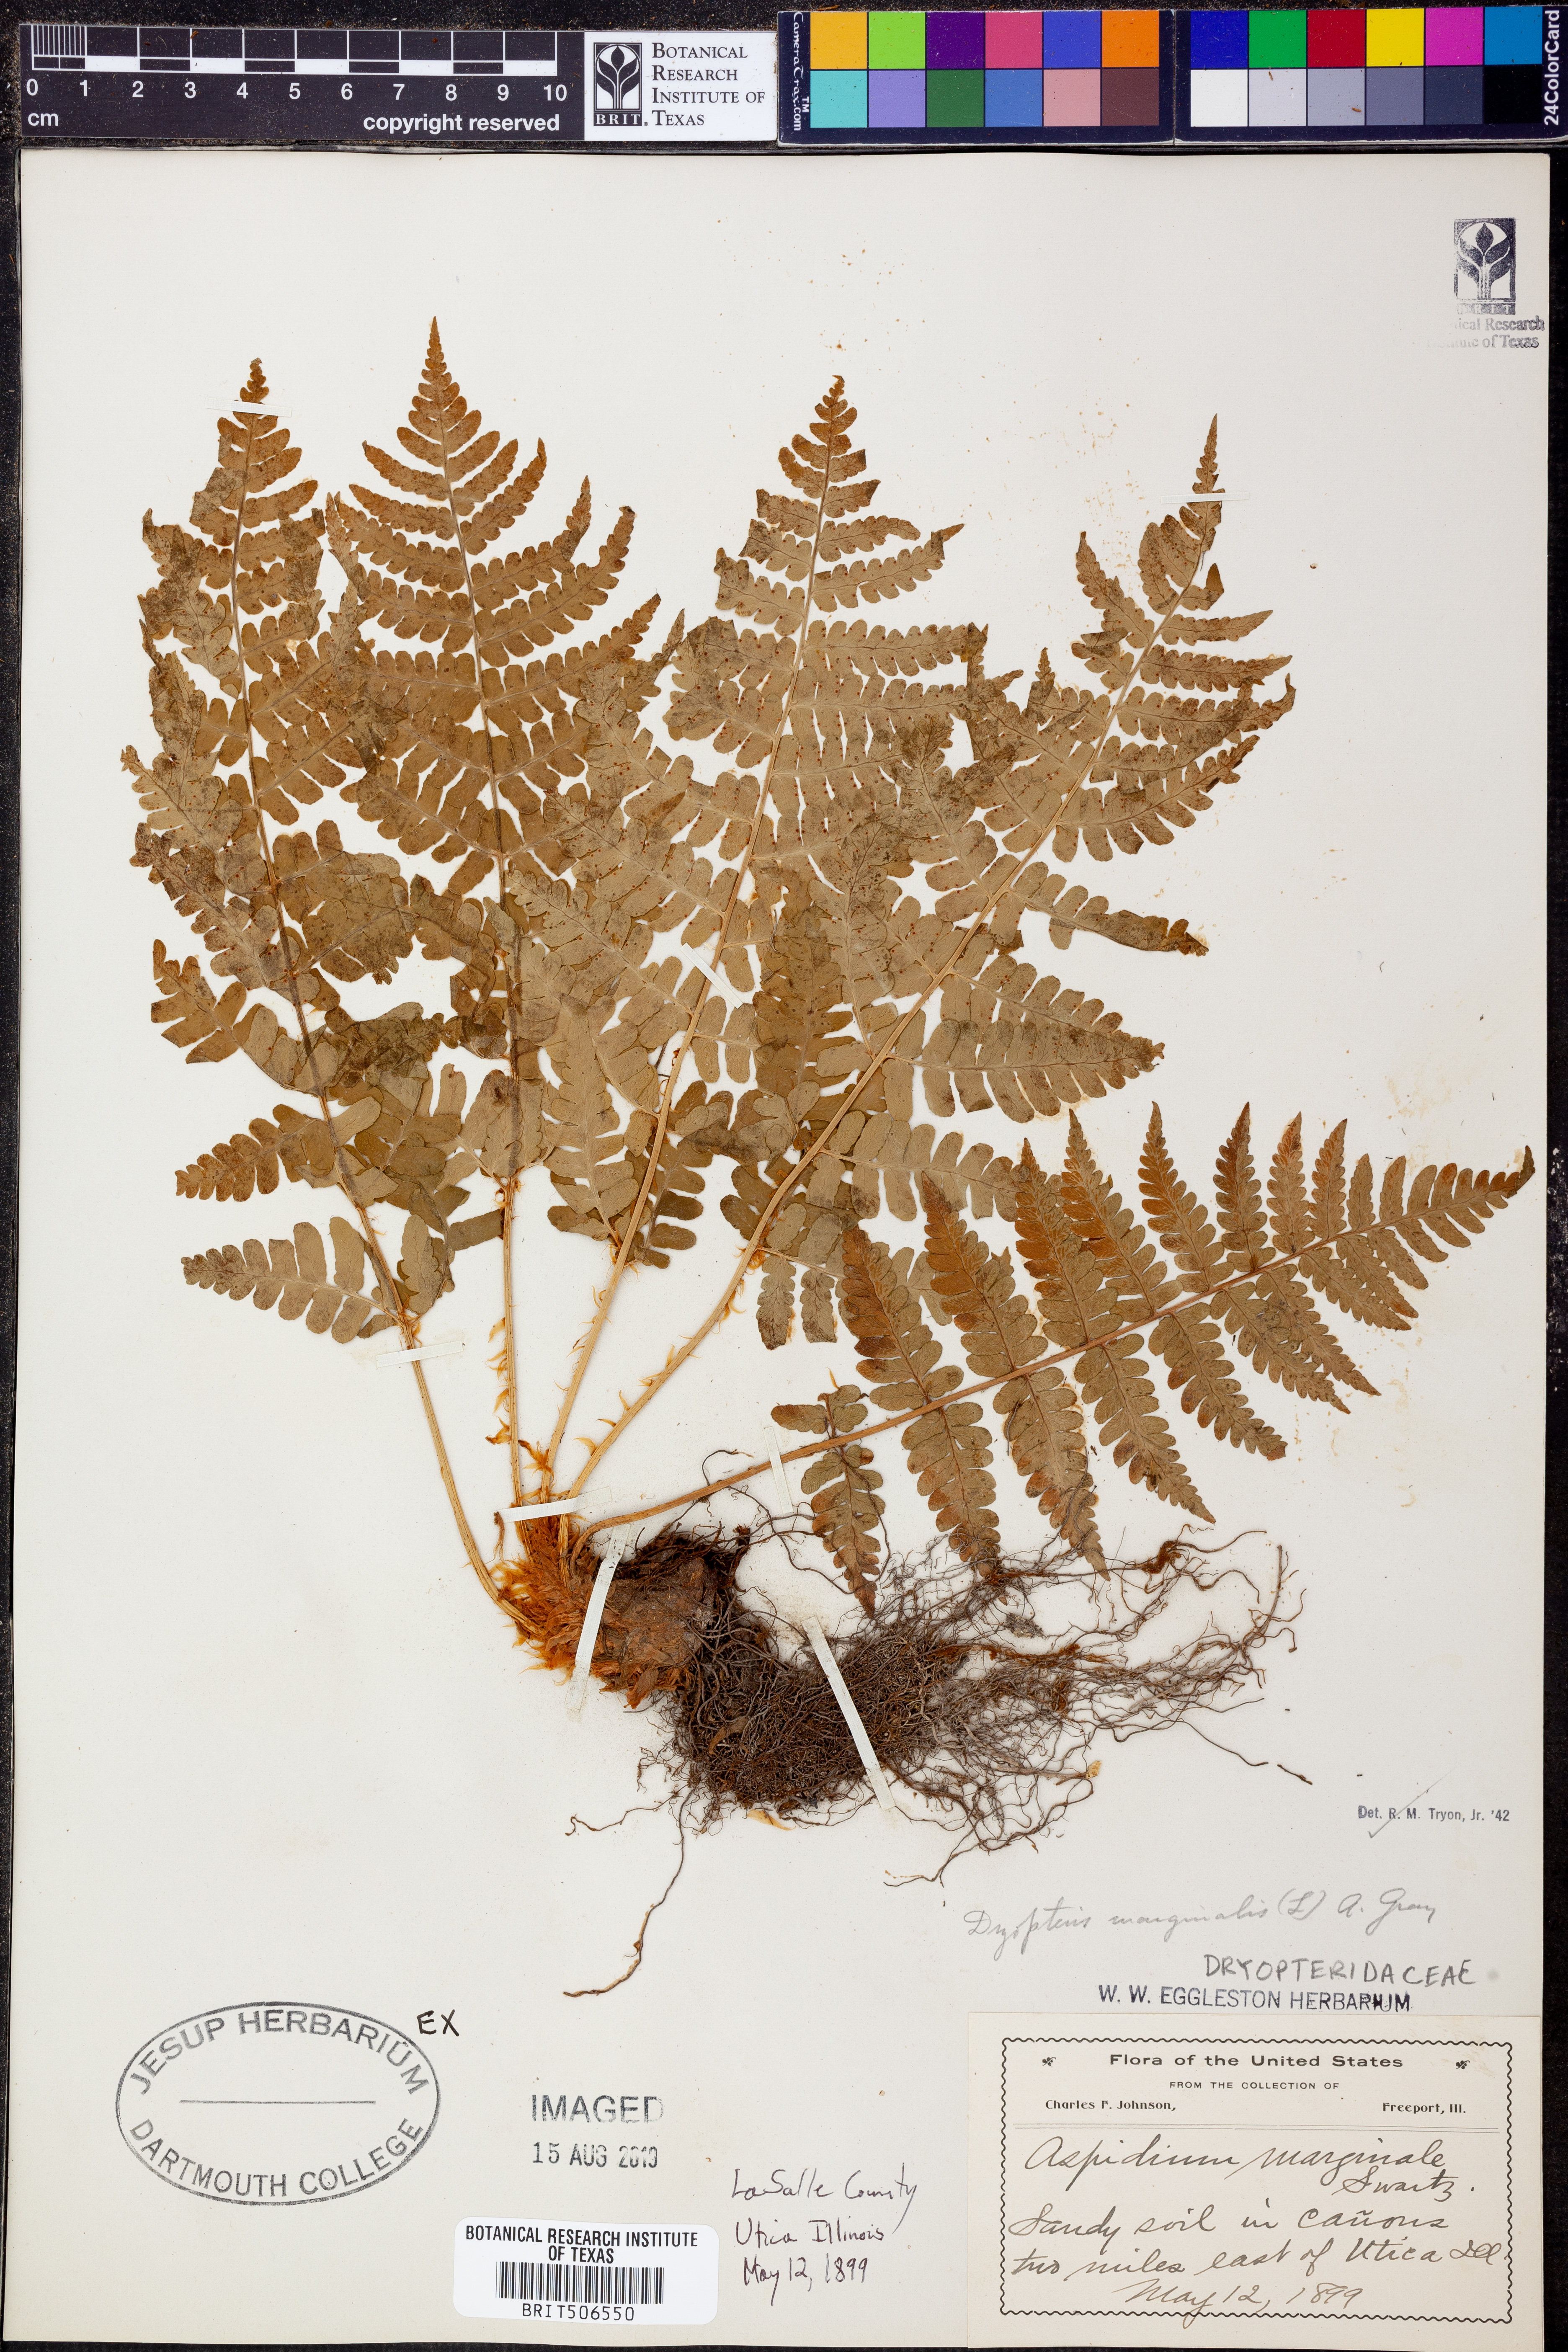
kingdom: Plantae
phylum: Tracheophyta
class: Polypodiopsida
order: Polypodiales
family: Dryopteridaceae
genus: Dryopteris
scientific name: Dryopteris marginalis
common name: Marginal wood fern
